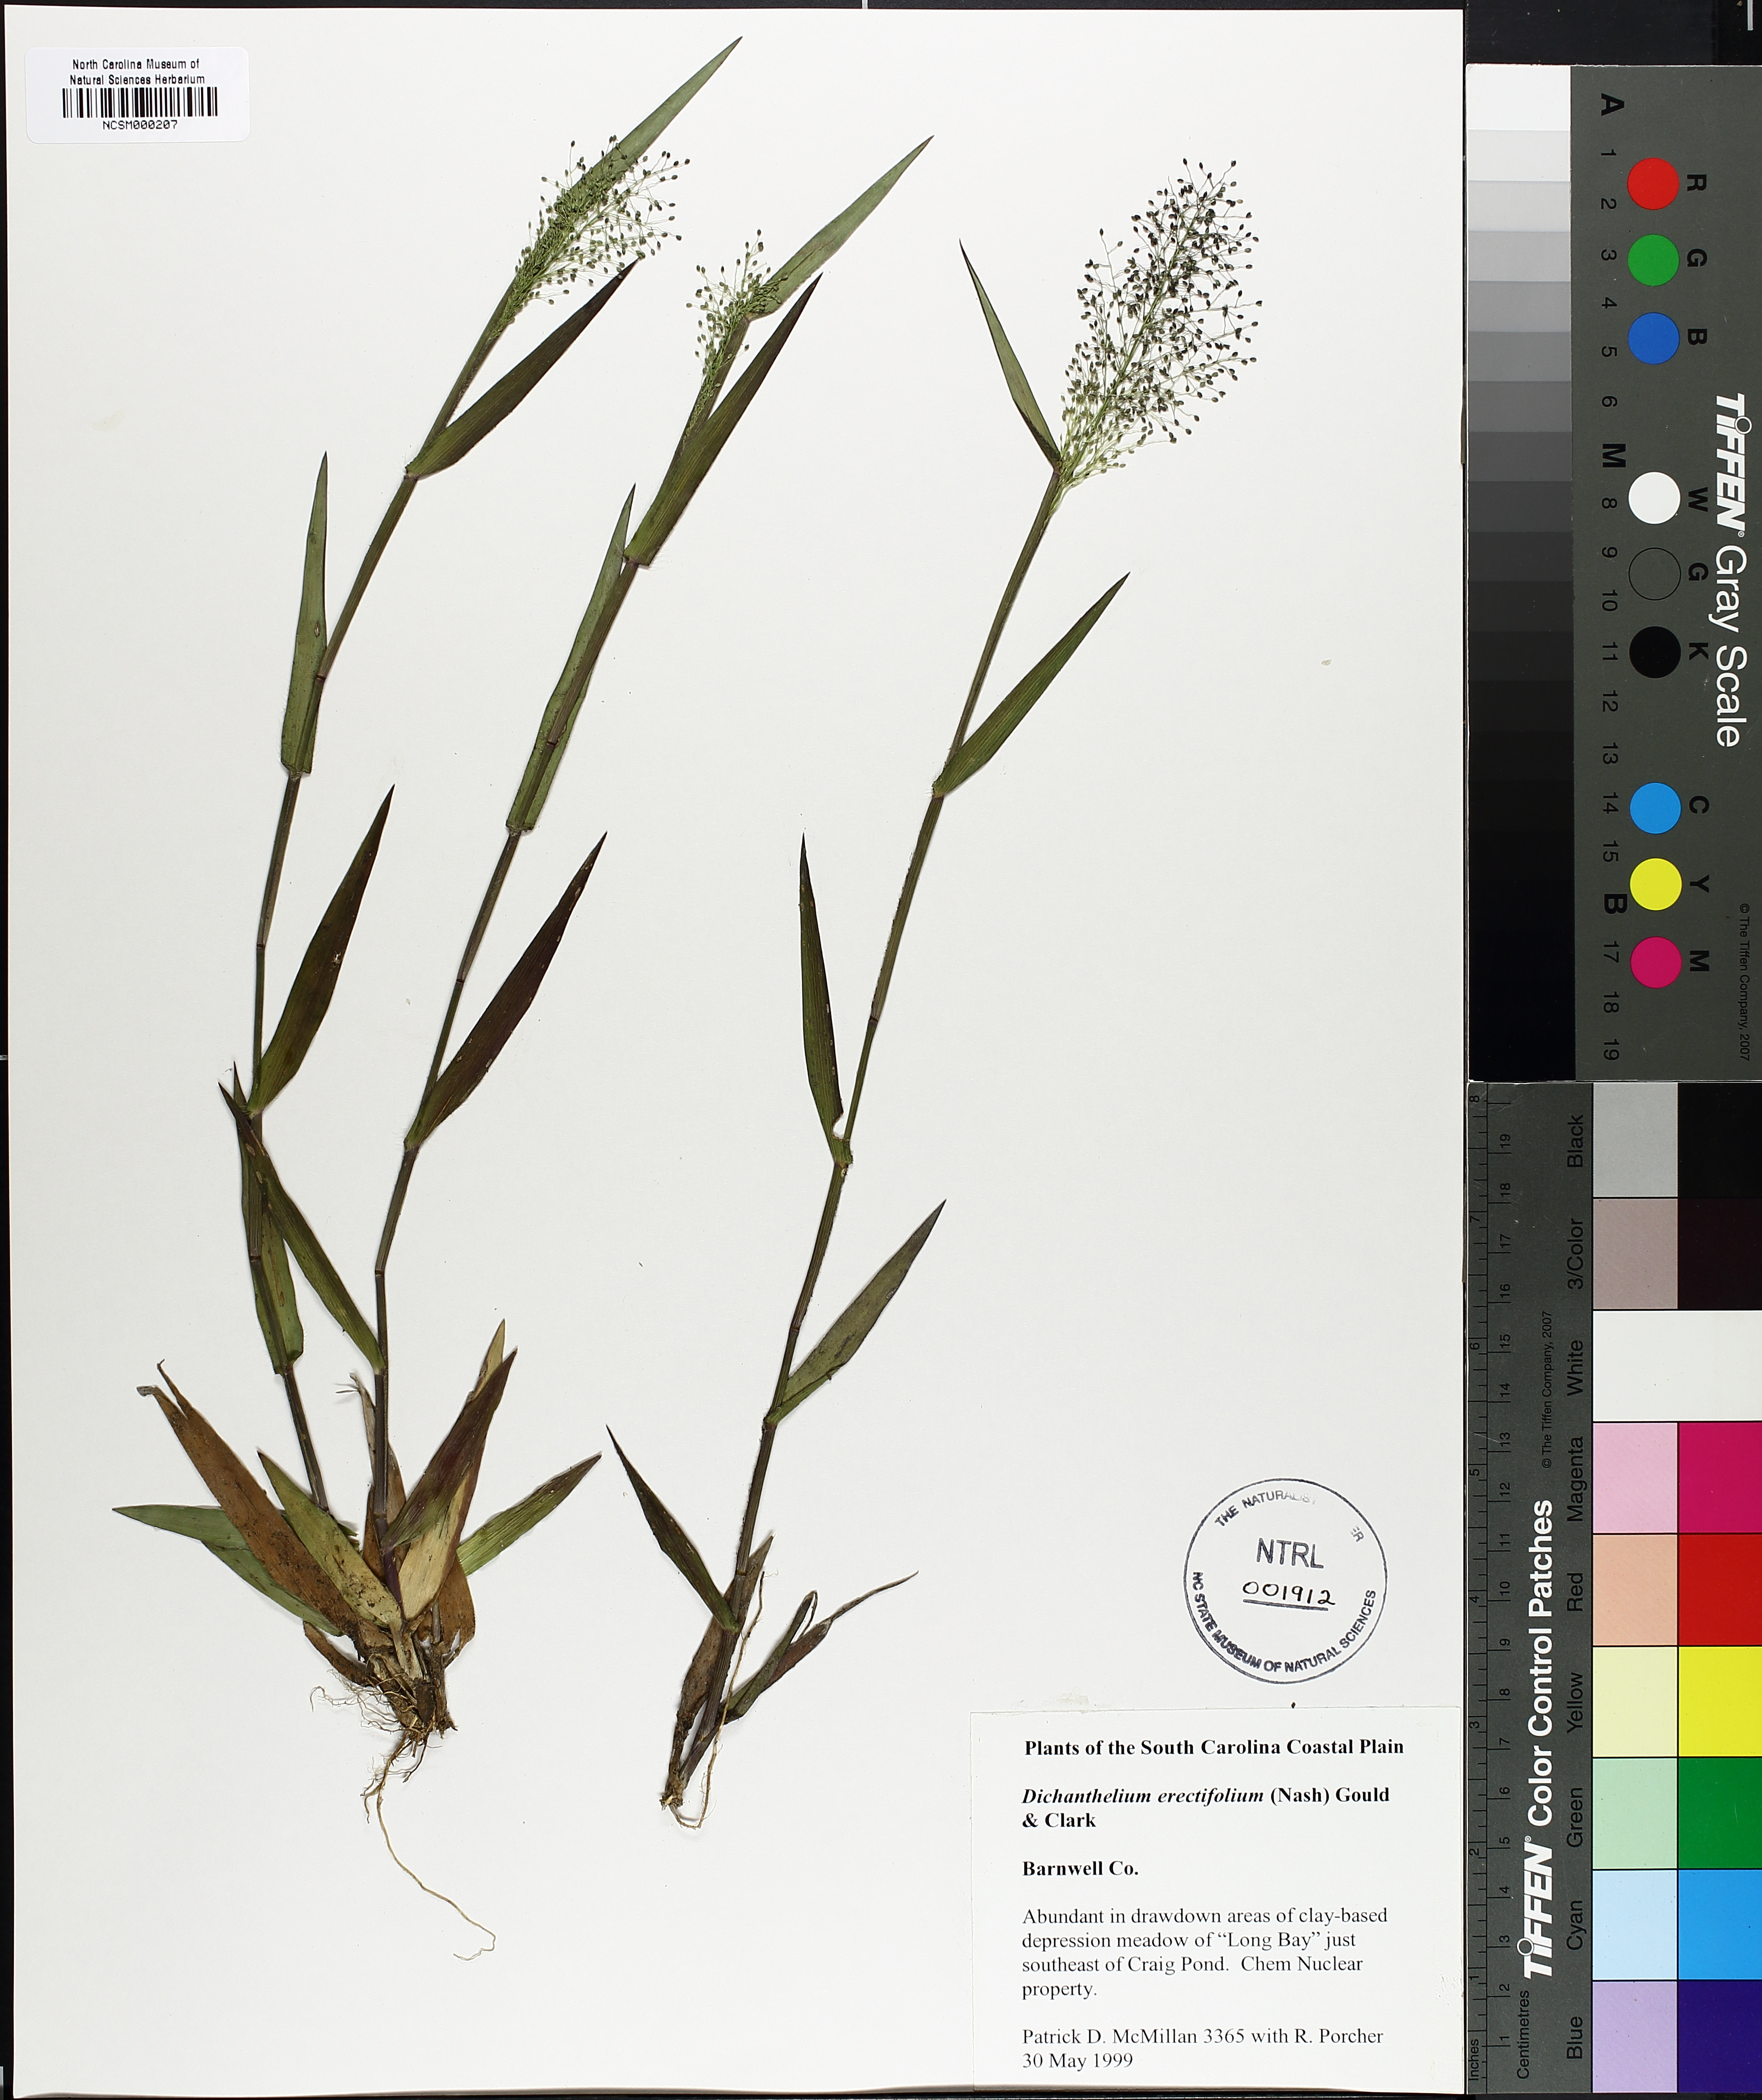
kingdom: Plantae
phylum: Tracheophyta
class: Liliopsida
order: Poales
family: Poaceae
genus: Dichanthelium
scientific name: Dichanthelium erectifolium
